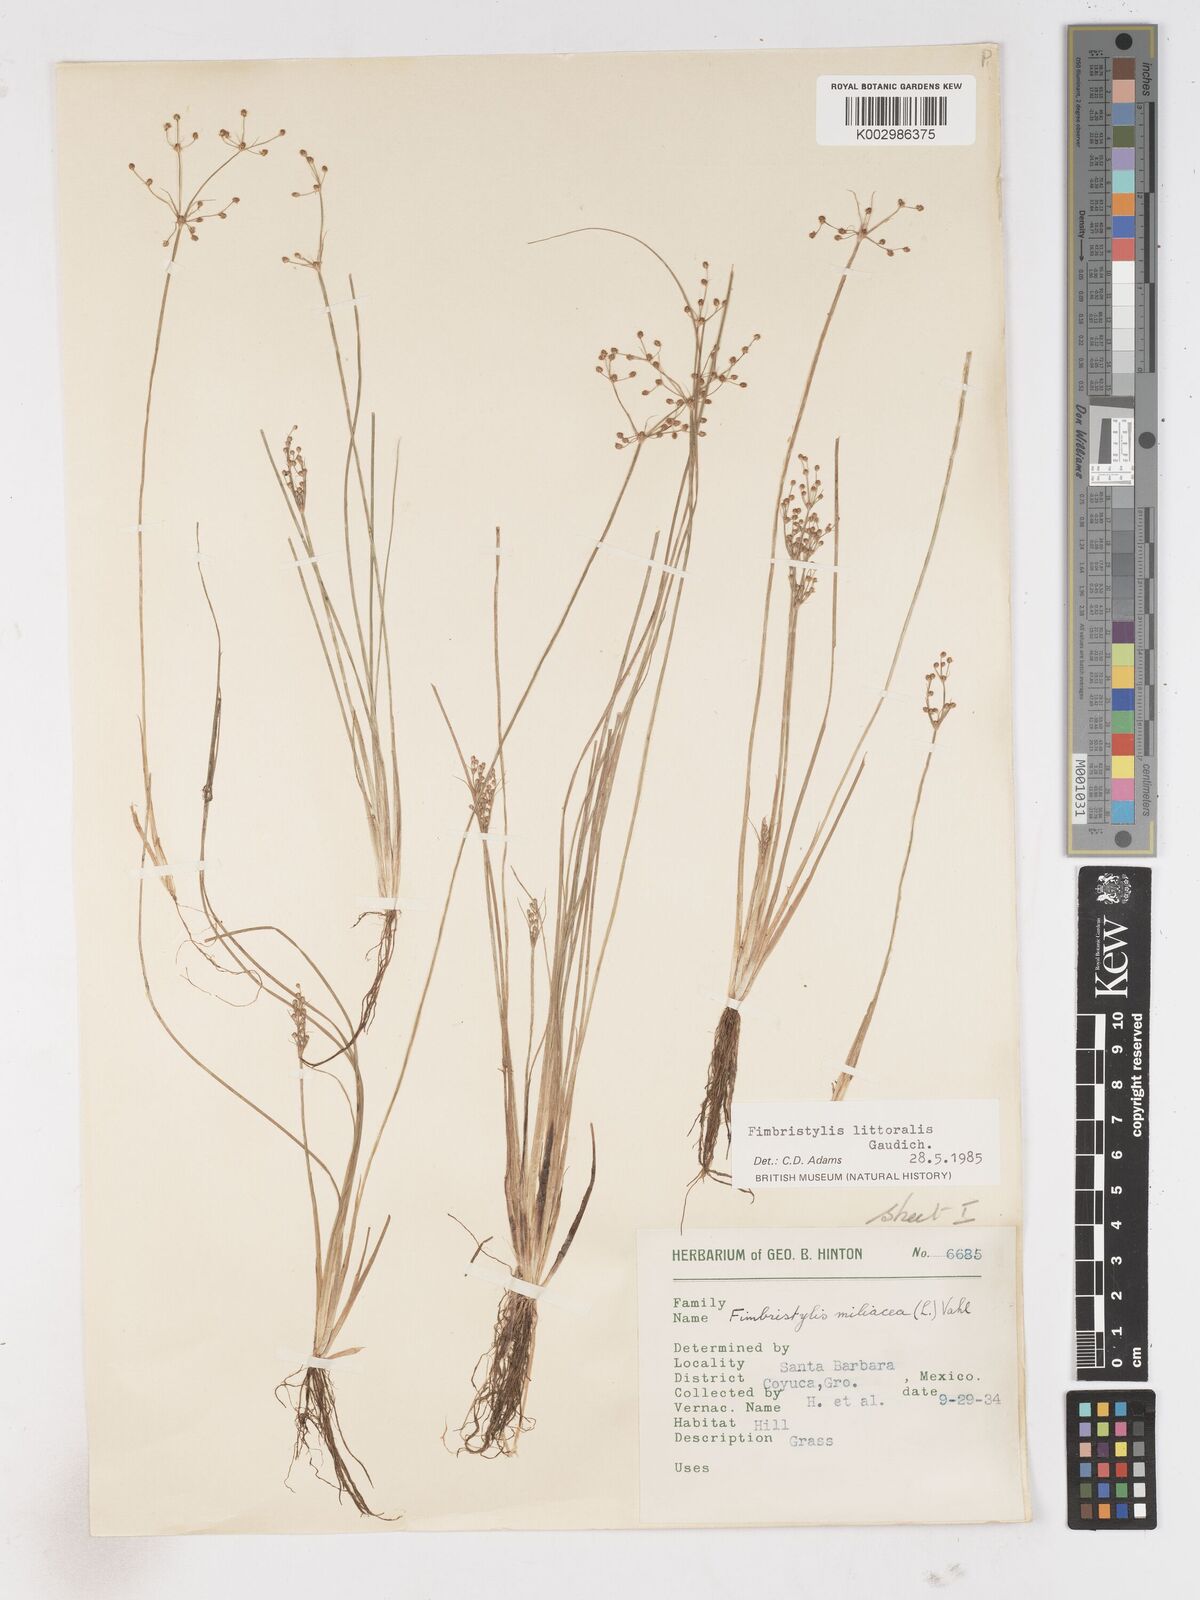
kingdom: Plantae
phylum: Tracheophyta
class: Liliopsida
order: Poales
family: Cyperaceae
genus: Fimbristylis
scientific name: Fimbristylis littoralis
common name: Fimbry
